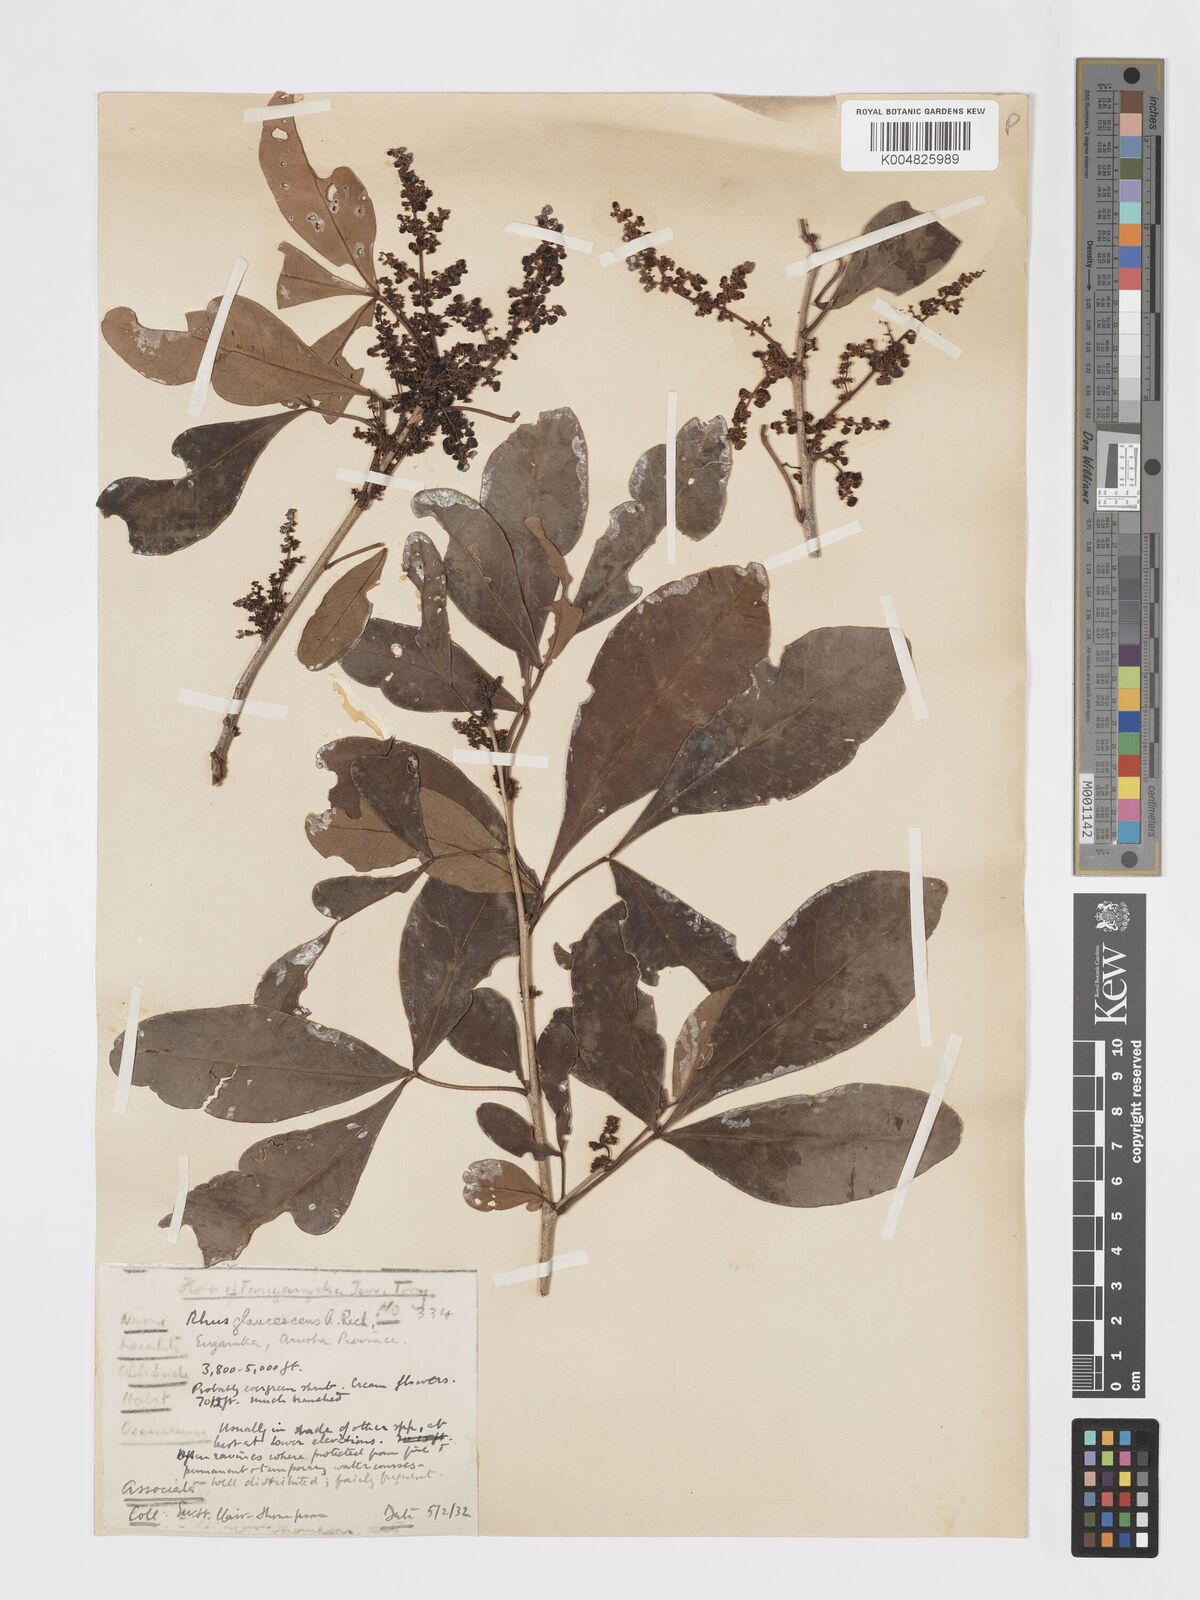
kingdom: Plantae
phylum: Tracheophyta
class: Magnoliopsida
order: Sapindales
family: Anacardiaceae
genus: Searsia
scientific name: Searsia natalensis
